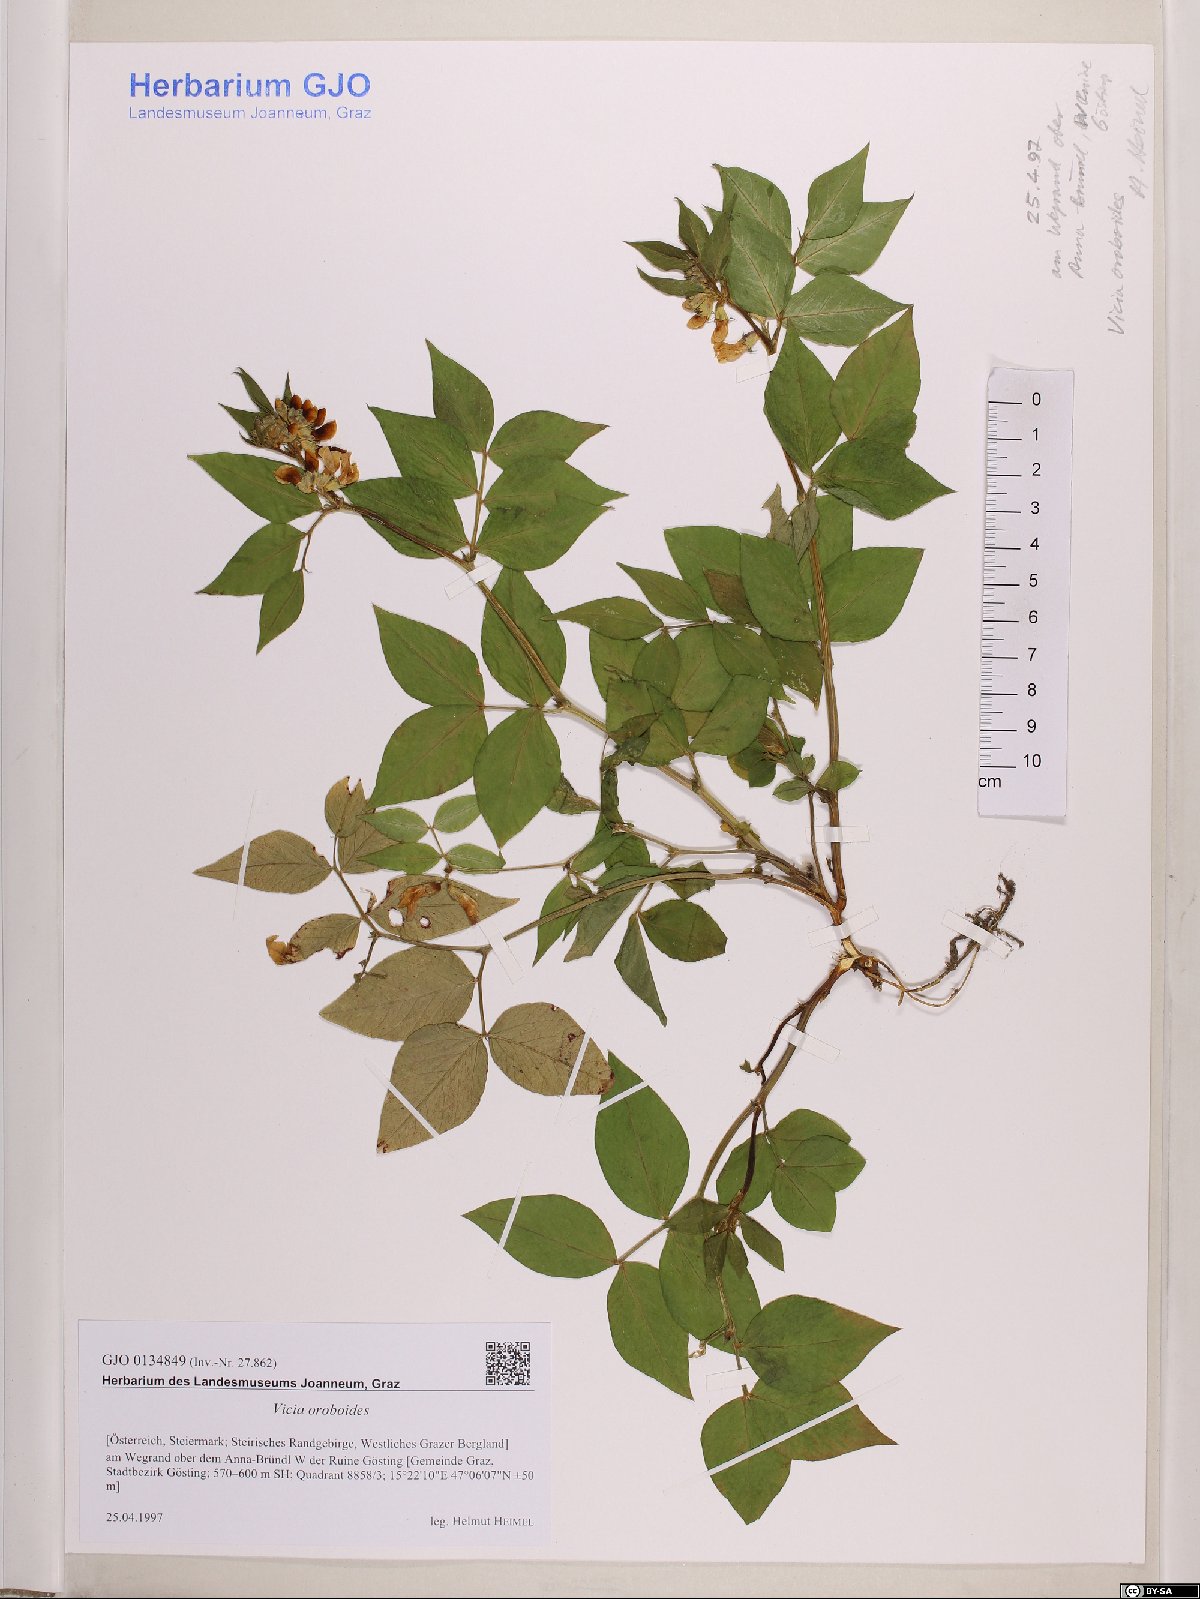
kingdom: Plantae
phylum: Tracheophyta
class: Magnoliopsida
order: Fabales
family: Fabaceae
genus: Vicia
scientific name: Vicia oroboides
